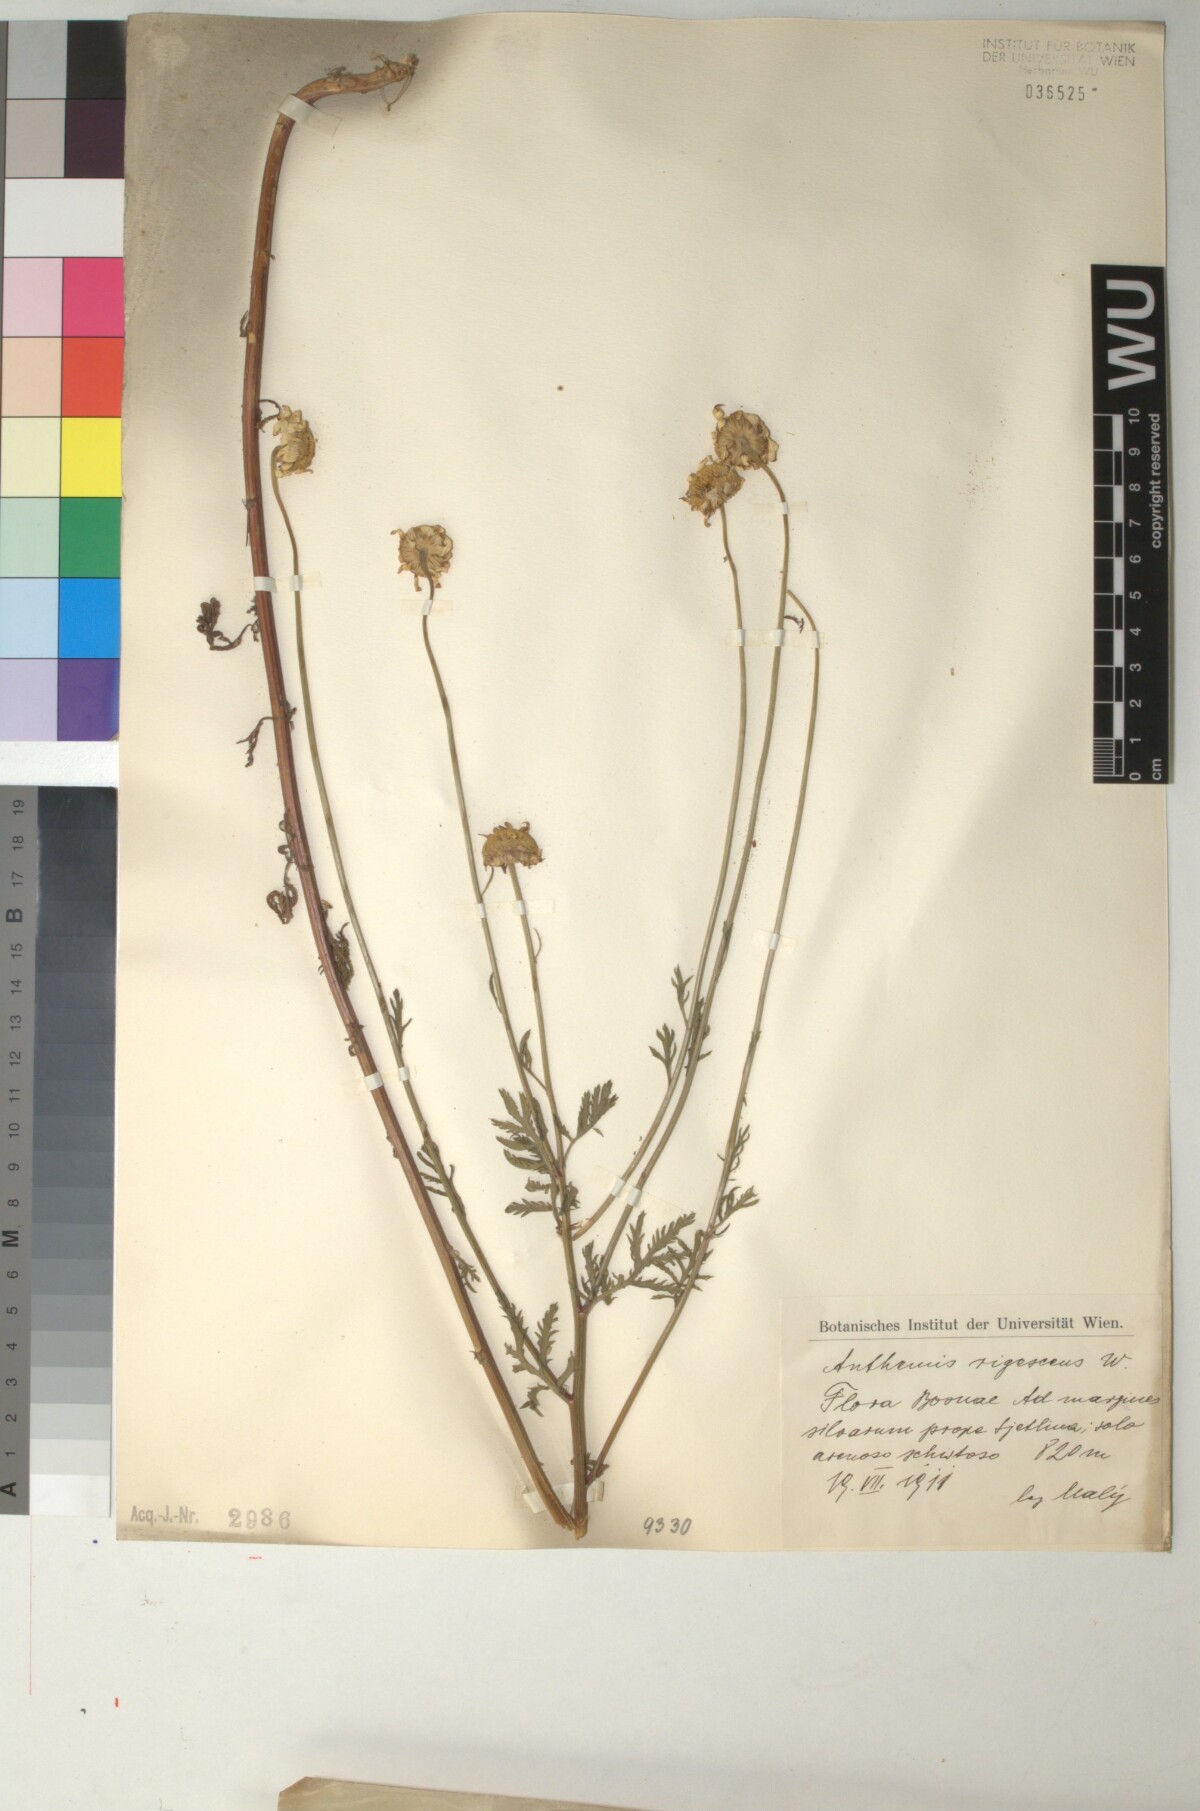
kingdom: Plantae
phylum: Tracheophyta
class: Magnoliopsida
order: Asterales
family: Asteraceae
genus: Cota
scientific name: Cota triumfetti
